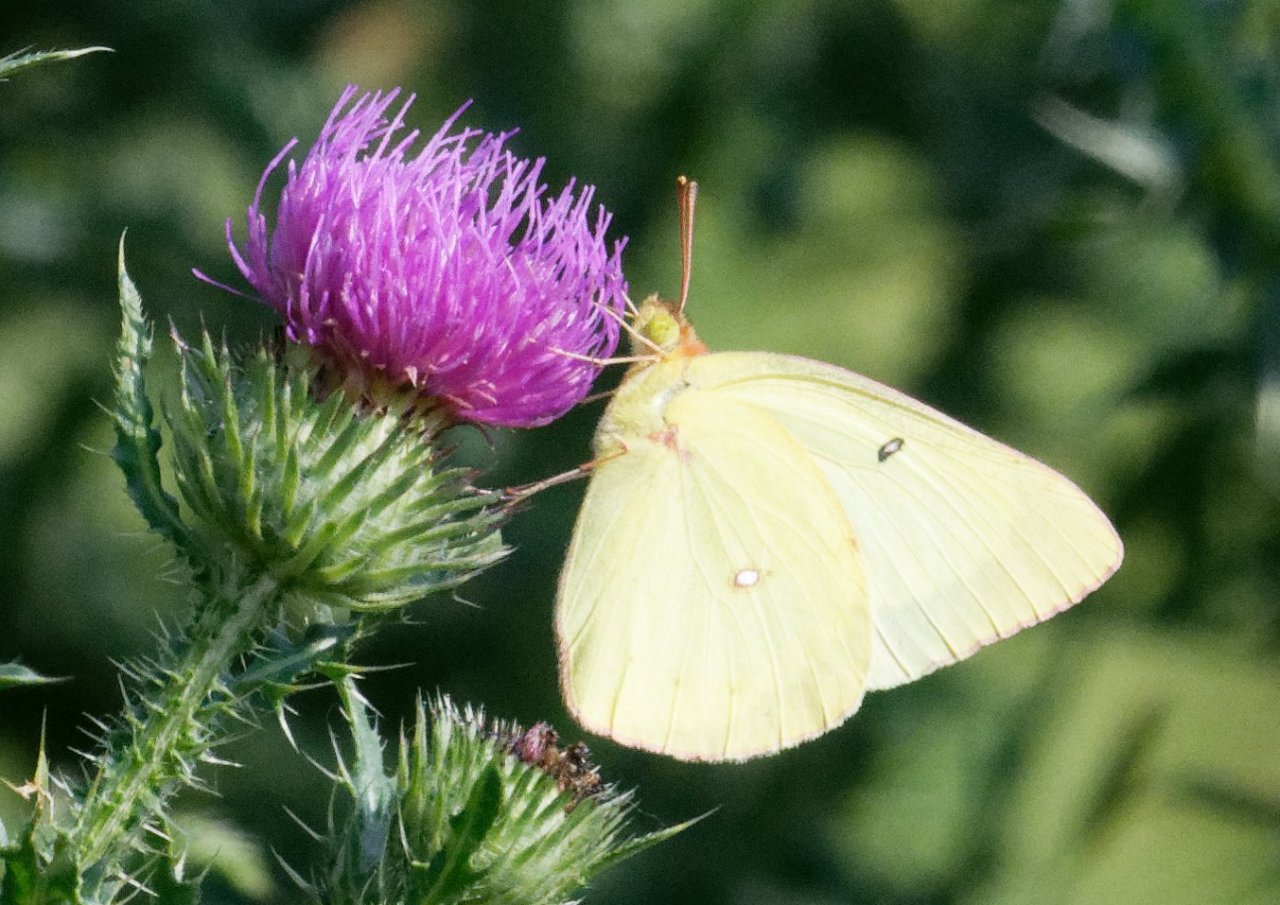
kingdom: Animalia
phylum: Arthropoda
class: Insecta
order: Lepidoptera
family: Pieridae
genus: Colias
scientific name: Colias philodice
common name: Clouded Sulphur
